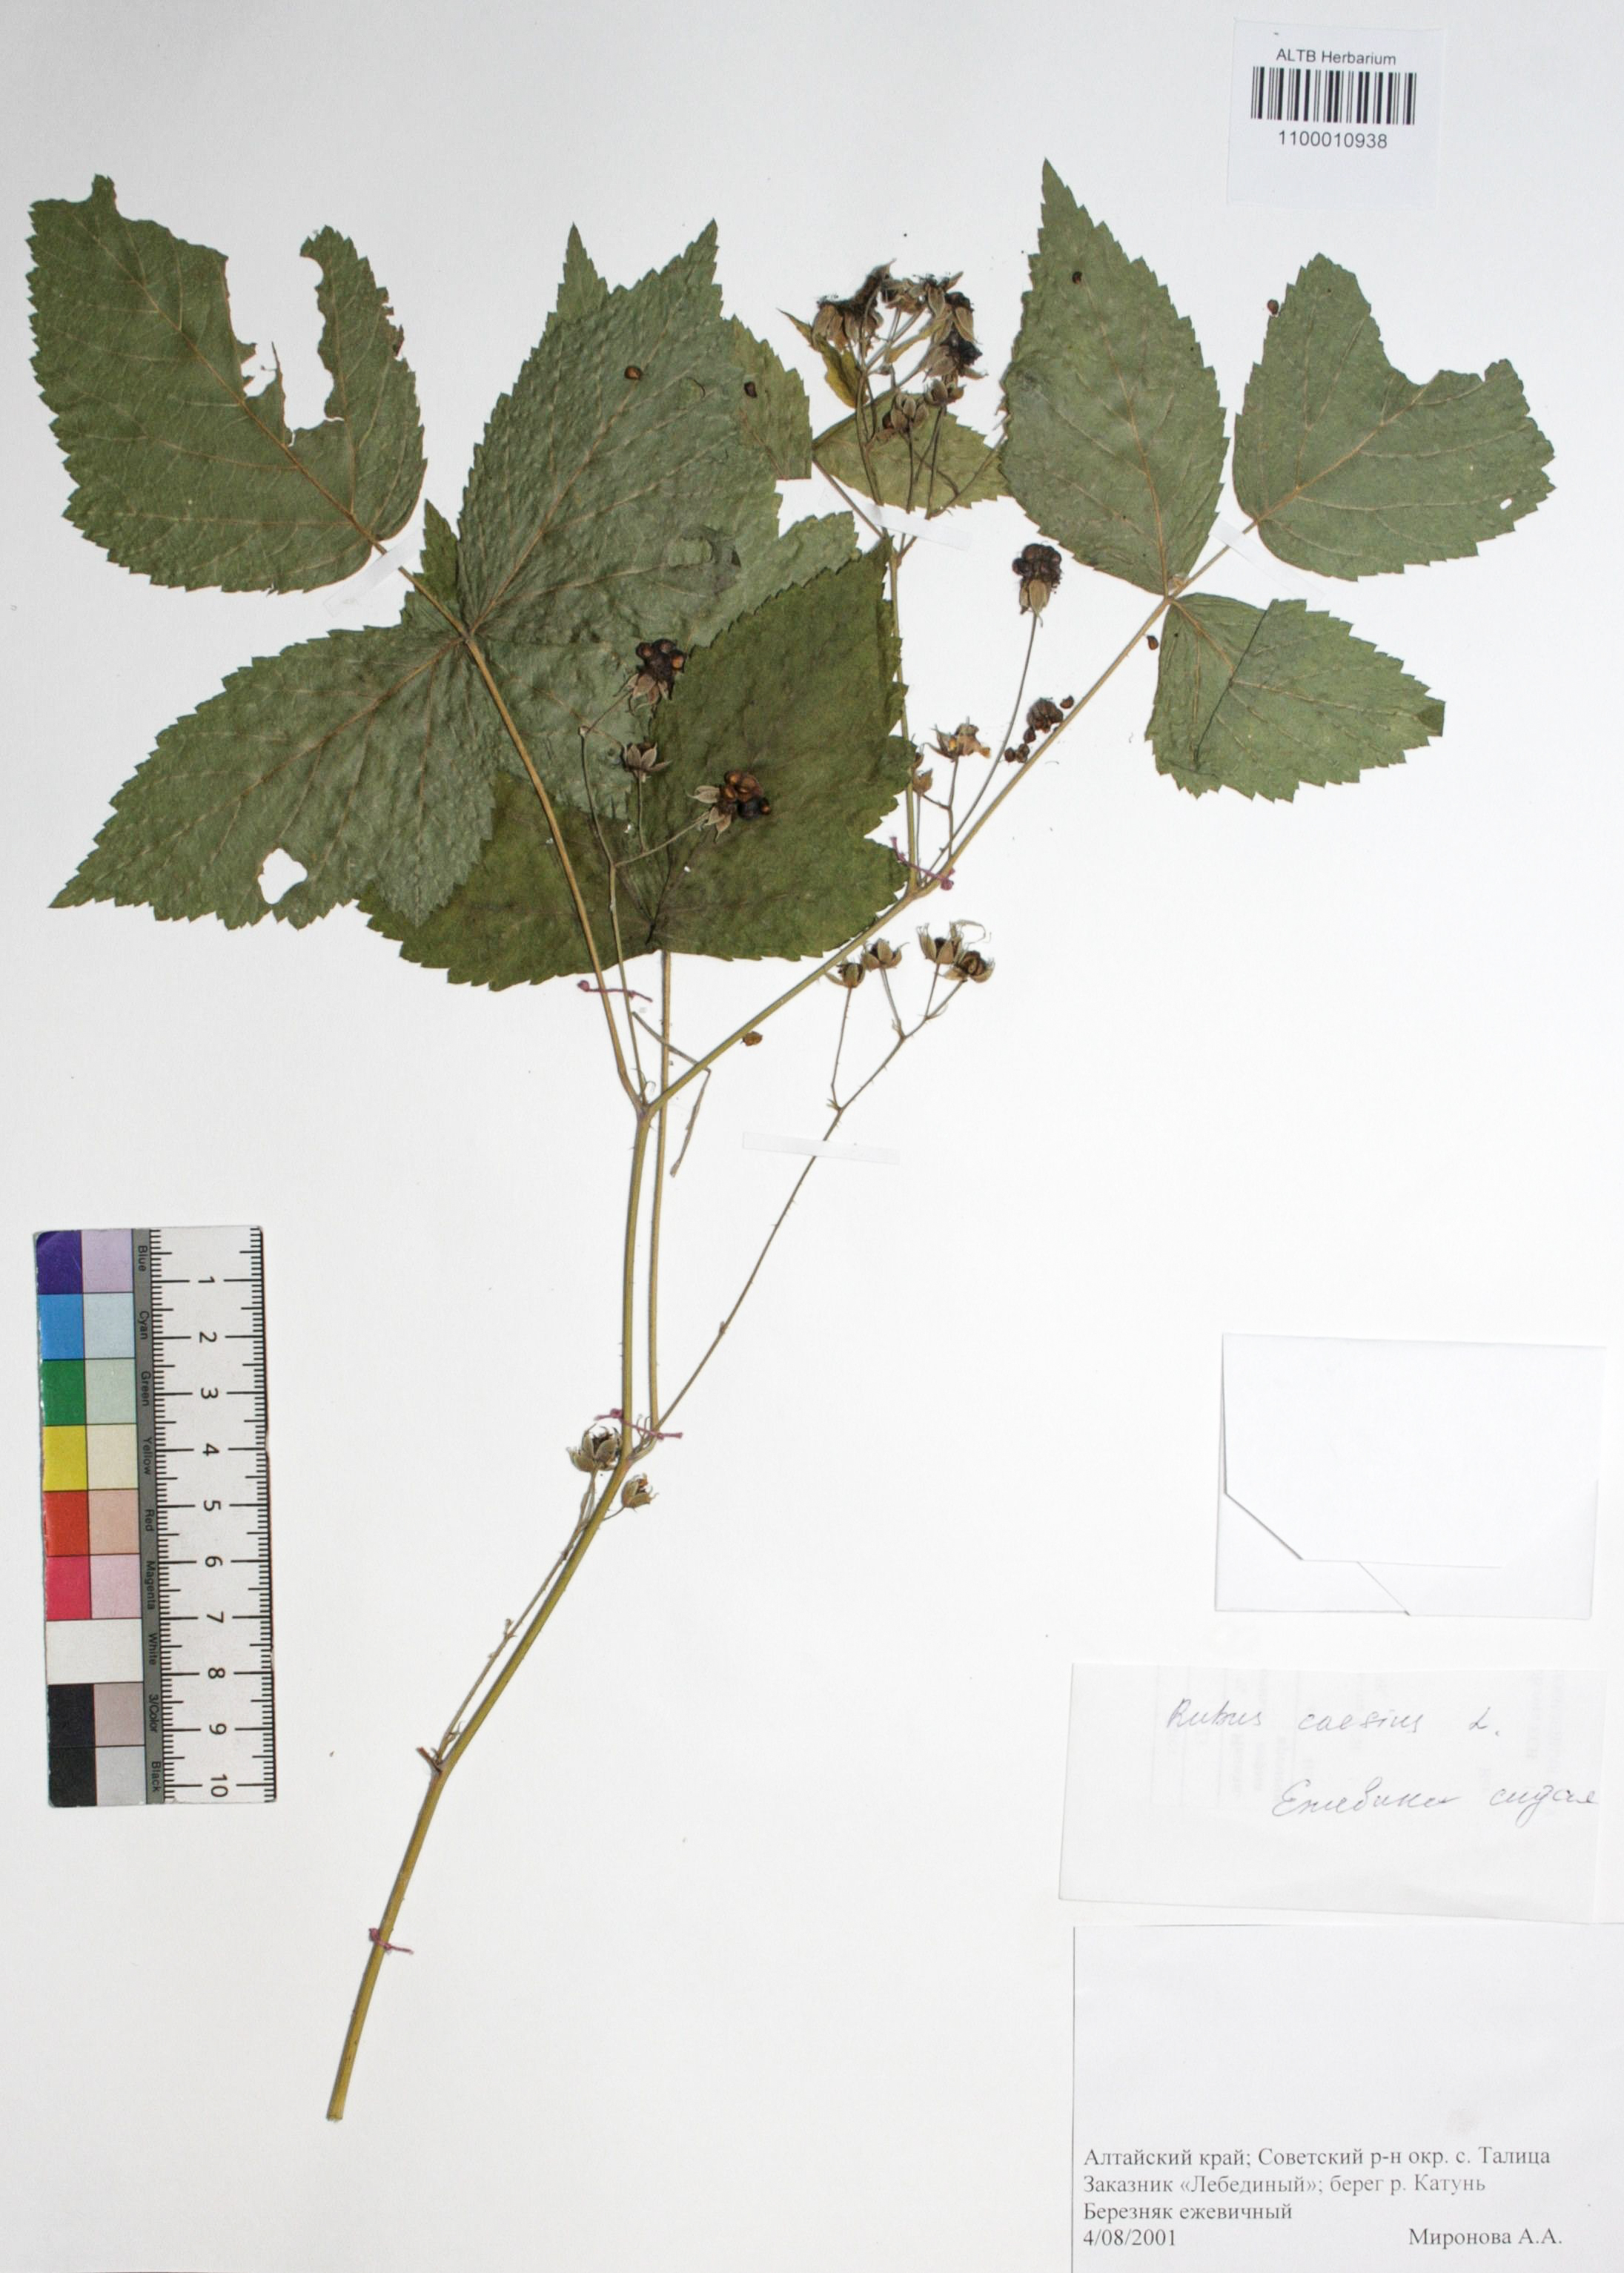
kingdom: Plantae
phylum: Tracheophyta
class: Magnoliopsida
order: Rosales
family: Rosaceae
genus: Rubus
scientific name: Rubus caesius
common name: Dewberry
